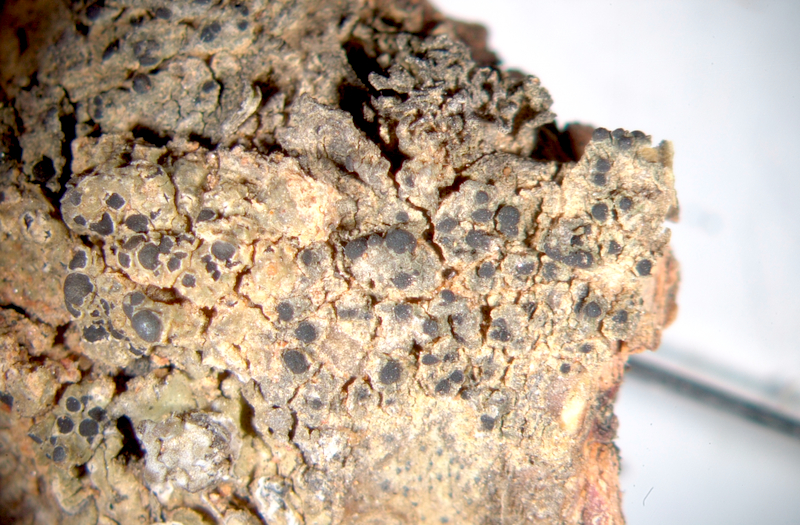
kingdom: Fungi
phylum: Ascomycota
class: Lecanoromycetes
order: Caliciales
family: Caliciaceae
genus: Buellia
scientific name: Buellia
